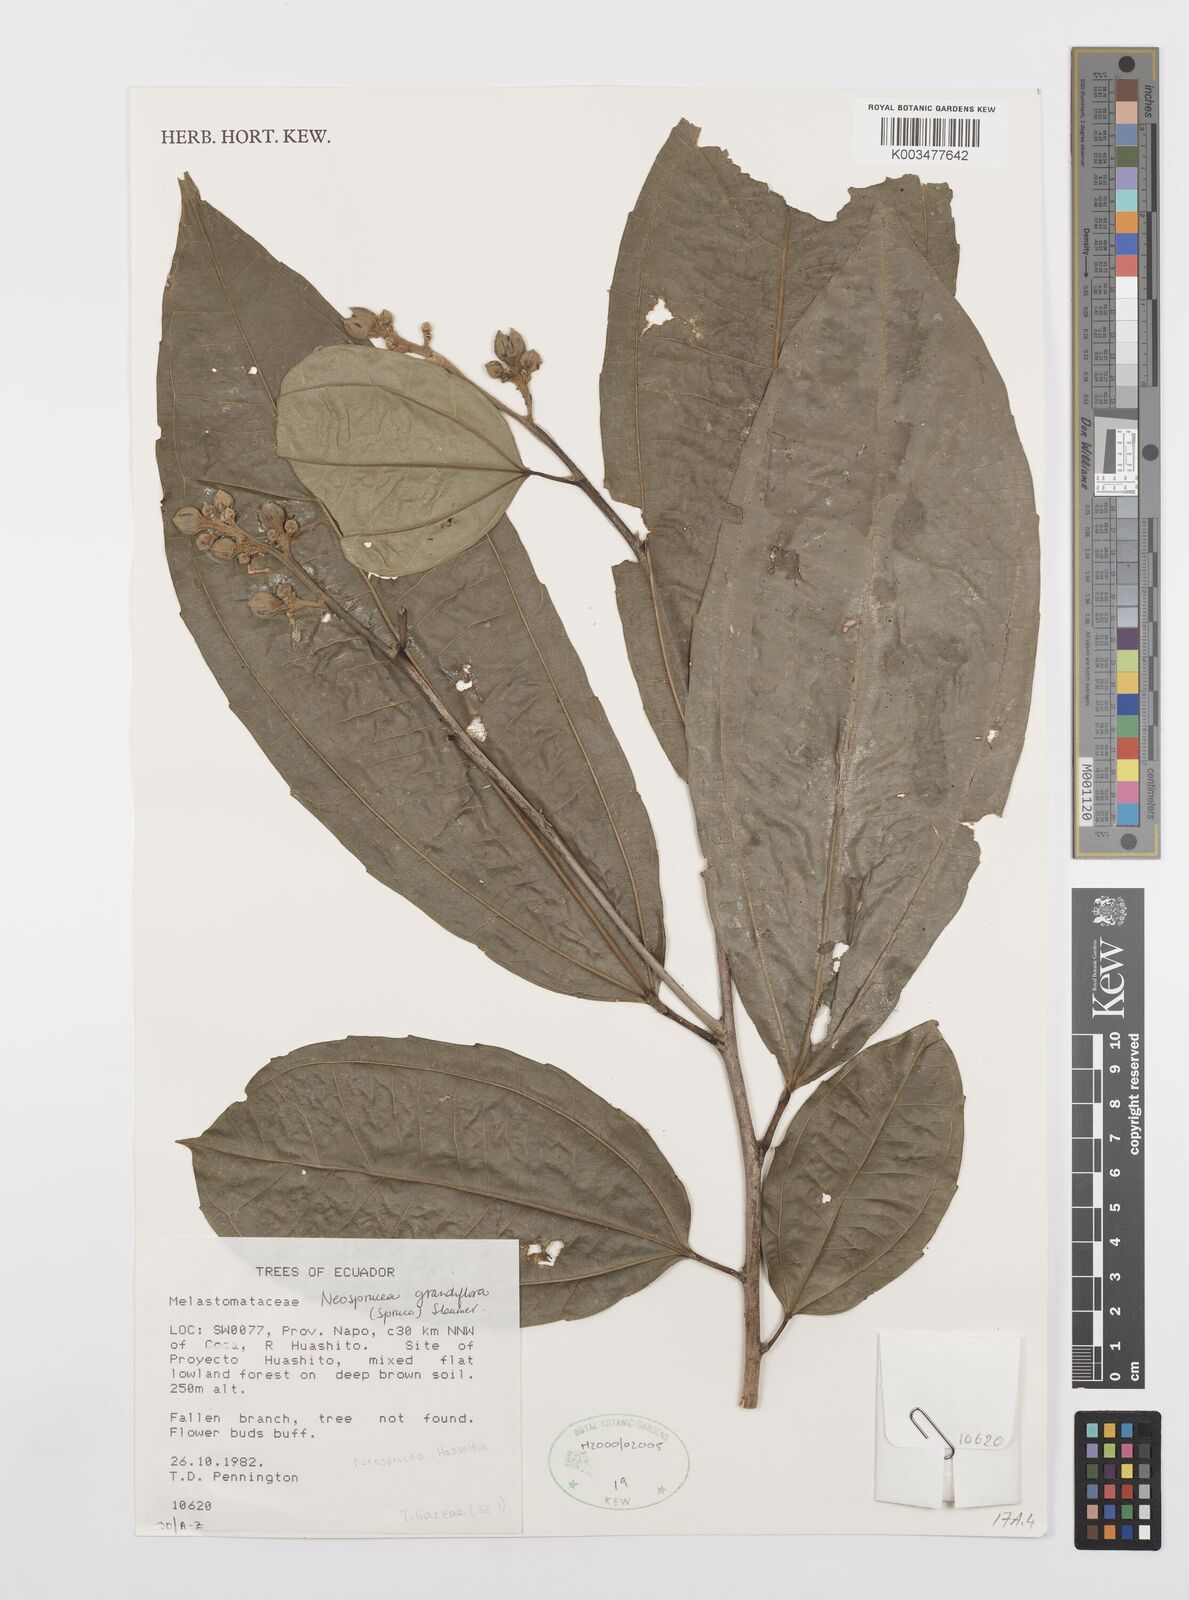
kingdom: Plantae
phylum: Tracheophyta
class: Magnoliopsida
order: Malpighiales
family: Salicaceae
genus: Neosprucea
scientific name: Neosprucea grandiflora
